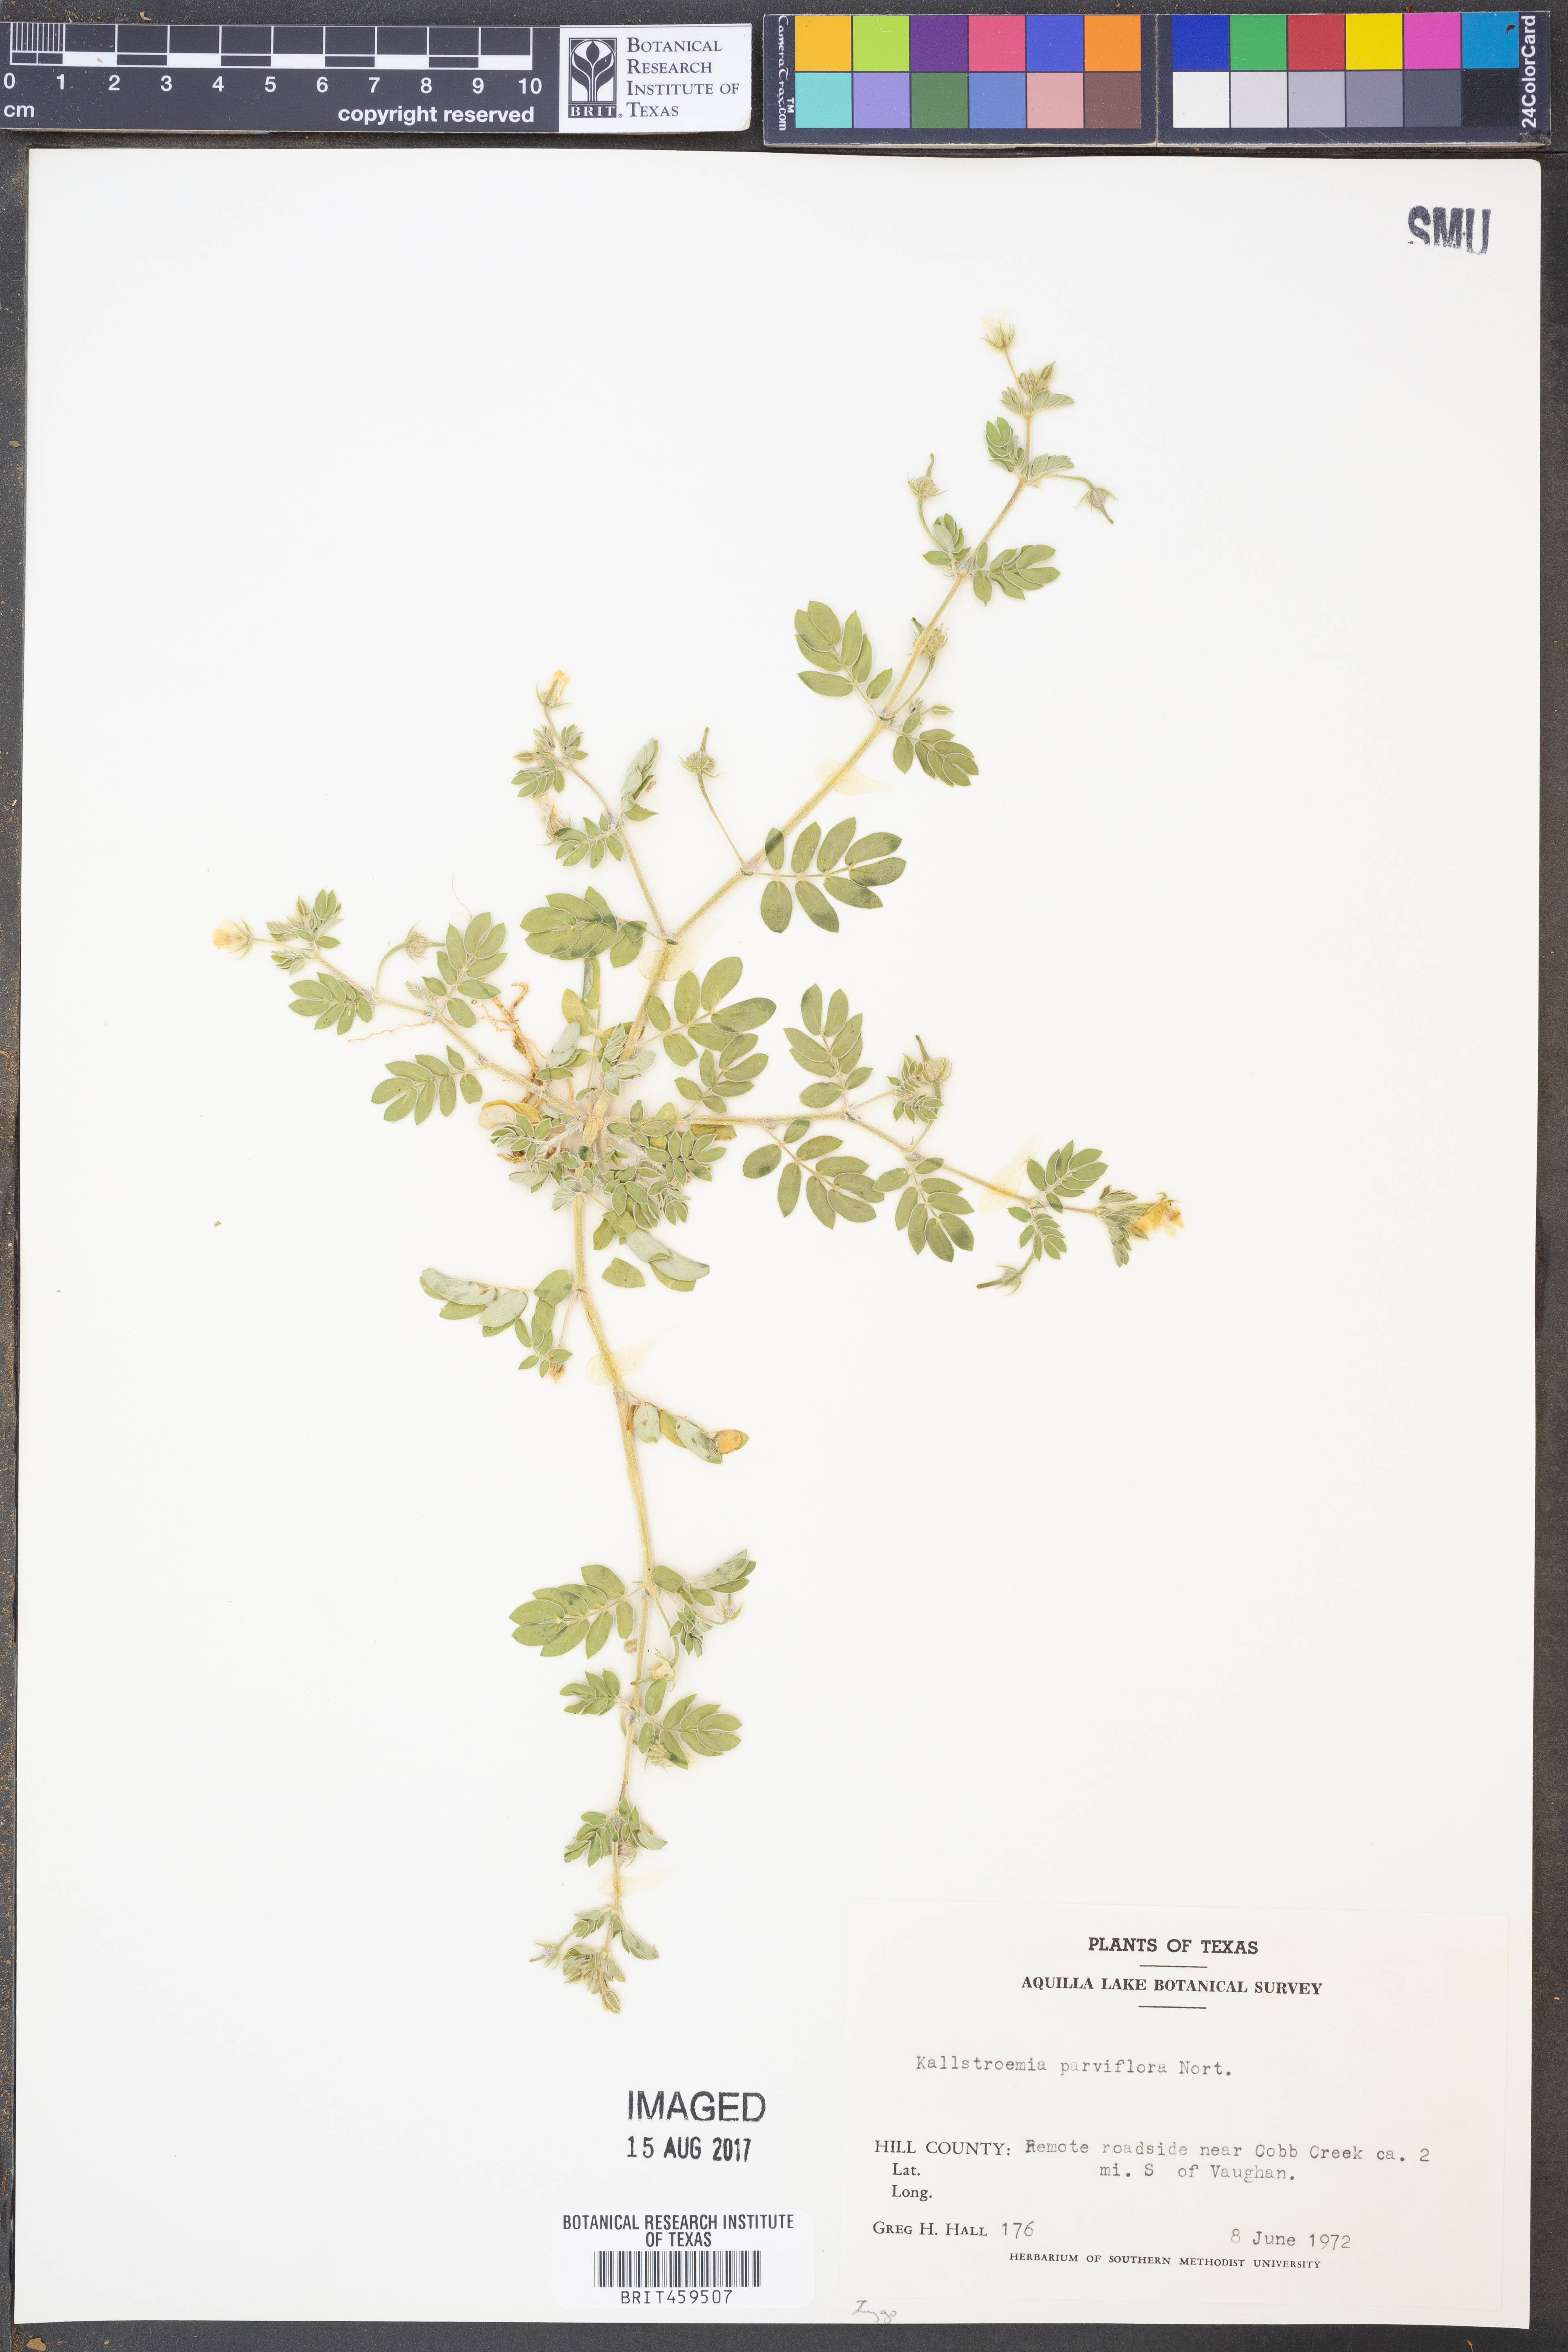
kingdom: Plantae
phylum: Tracheophyta
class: Magnoliopsida
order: Zygophyllales
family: Zygophyllaceae
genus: Kallstroemia
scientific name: Kallstroemia parviflora
